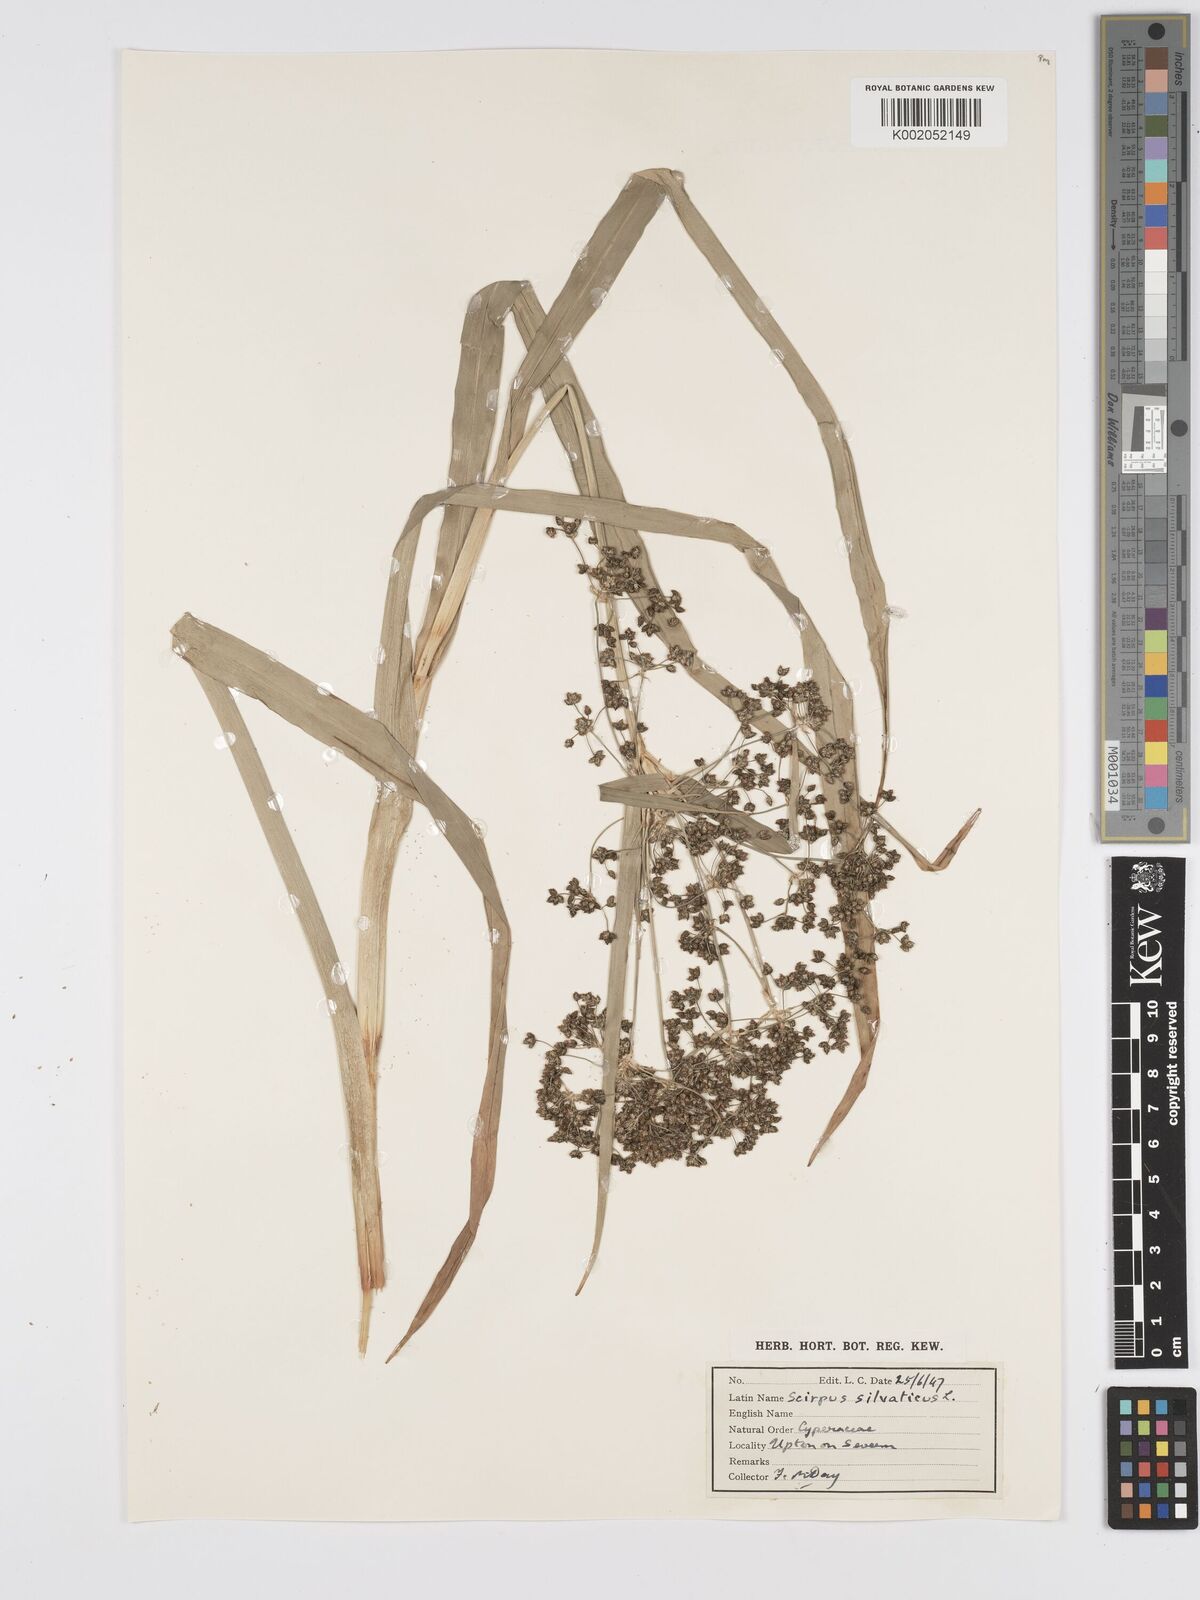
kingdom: Plantae
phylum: Tracheophyta
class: Liliopsida
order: Poales
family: Cyperaceae
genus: Scirpus
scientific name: Scirpus sylvaticus
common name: Wood club-rush
